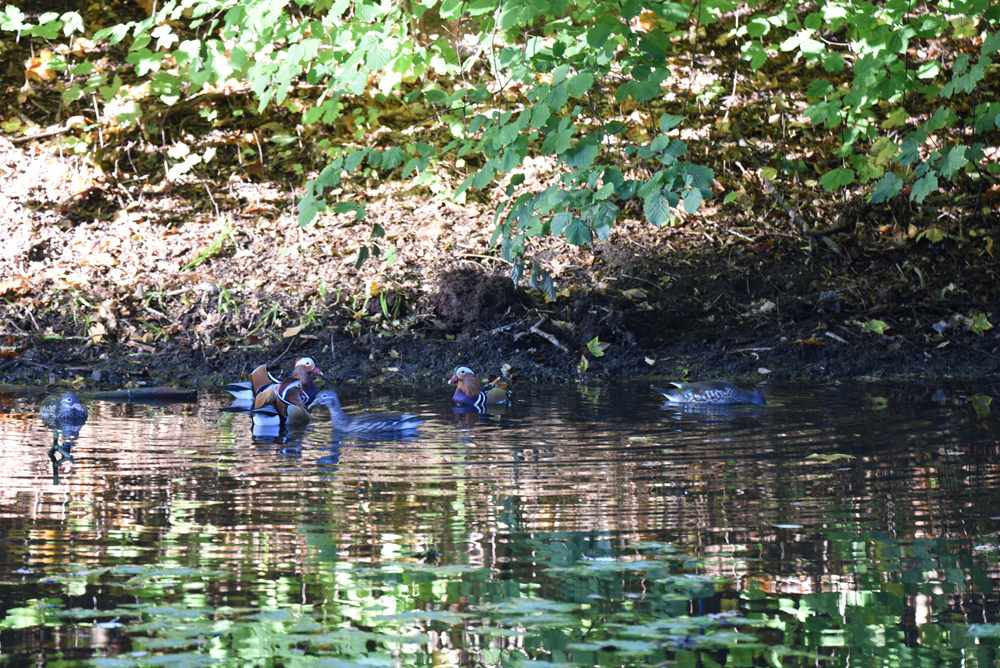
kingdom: Animalia
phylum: Chordata
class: Aves
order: Anseriformes
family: Anatidae
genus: Aix
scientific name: Aix galericulata
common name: Mandarin duck
